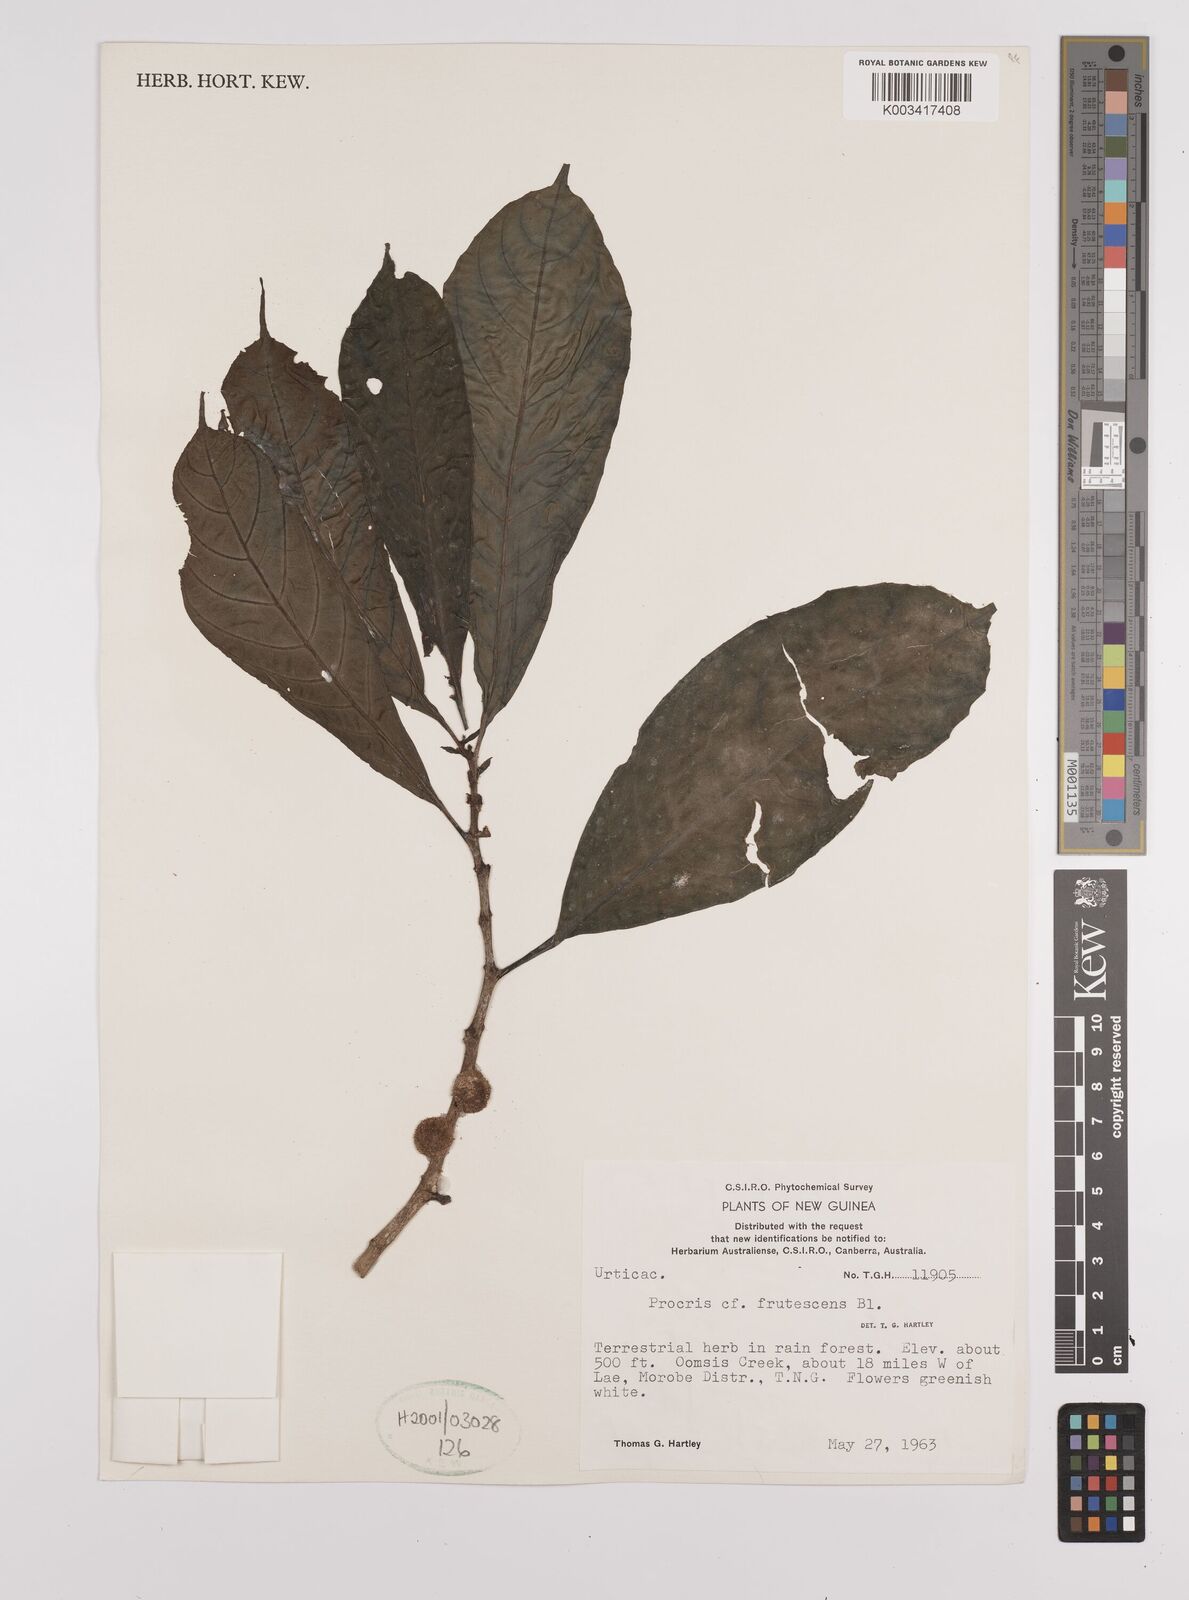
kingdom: Plantae
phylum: Tracheophyta
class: Magnoliopsida
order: Rosales
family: Urticaceae
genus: Procris
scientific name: Procris frutescens
